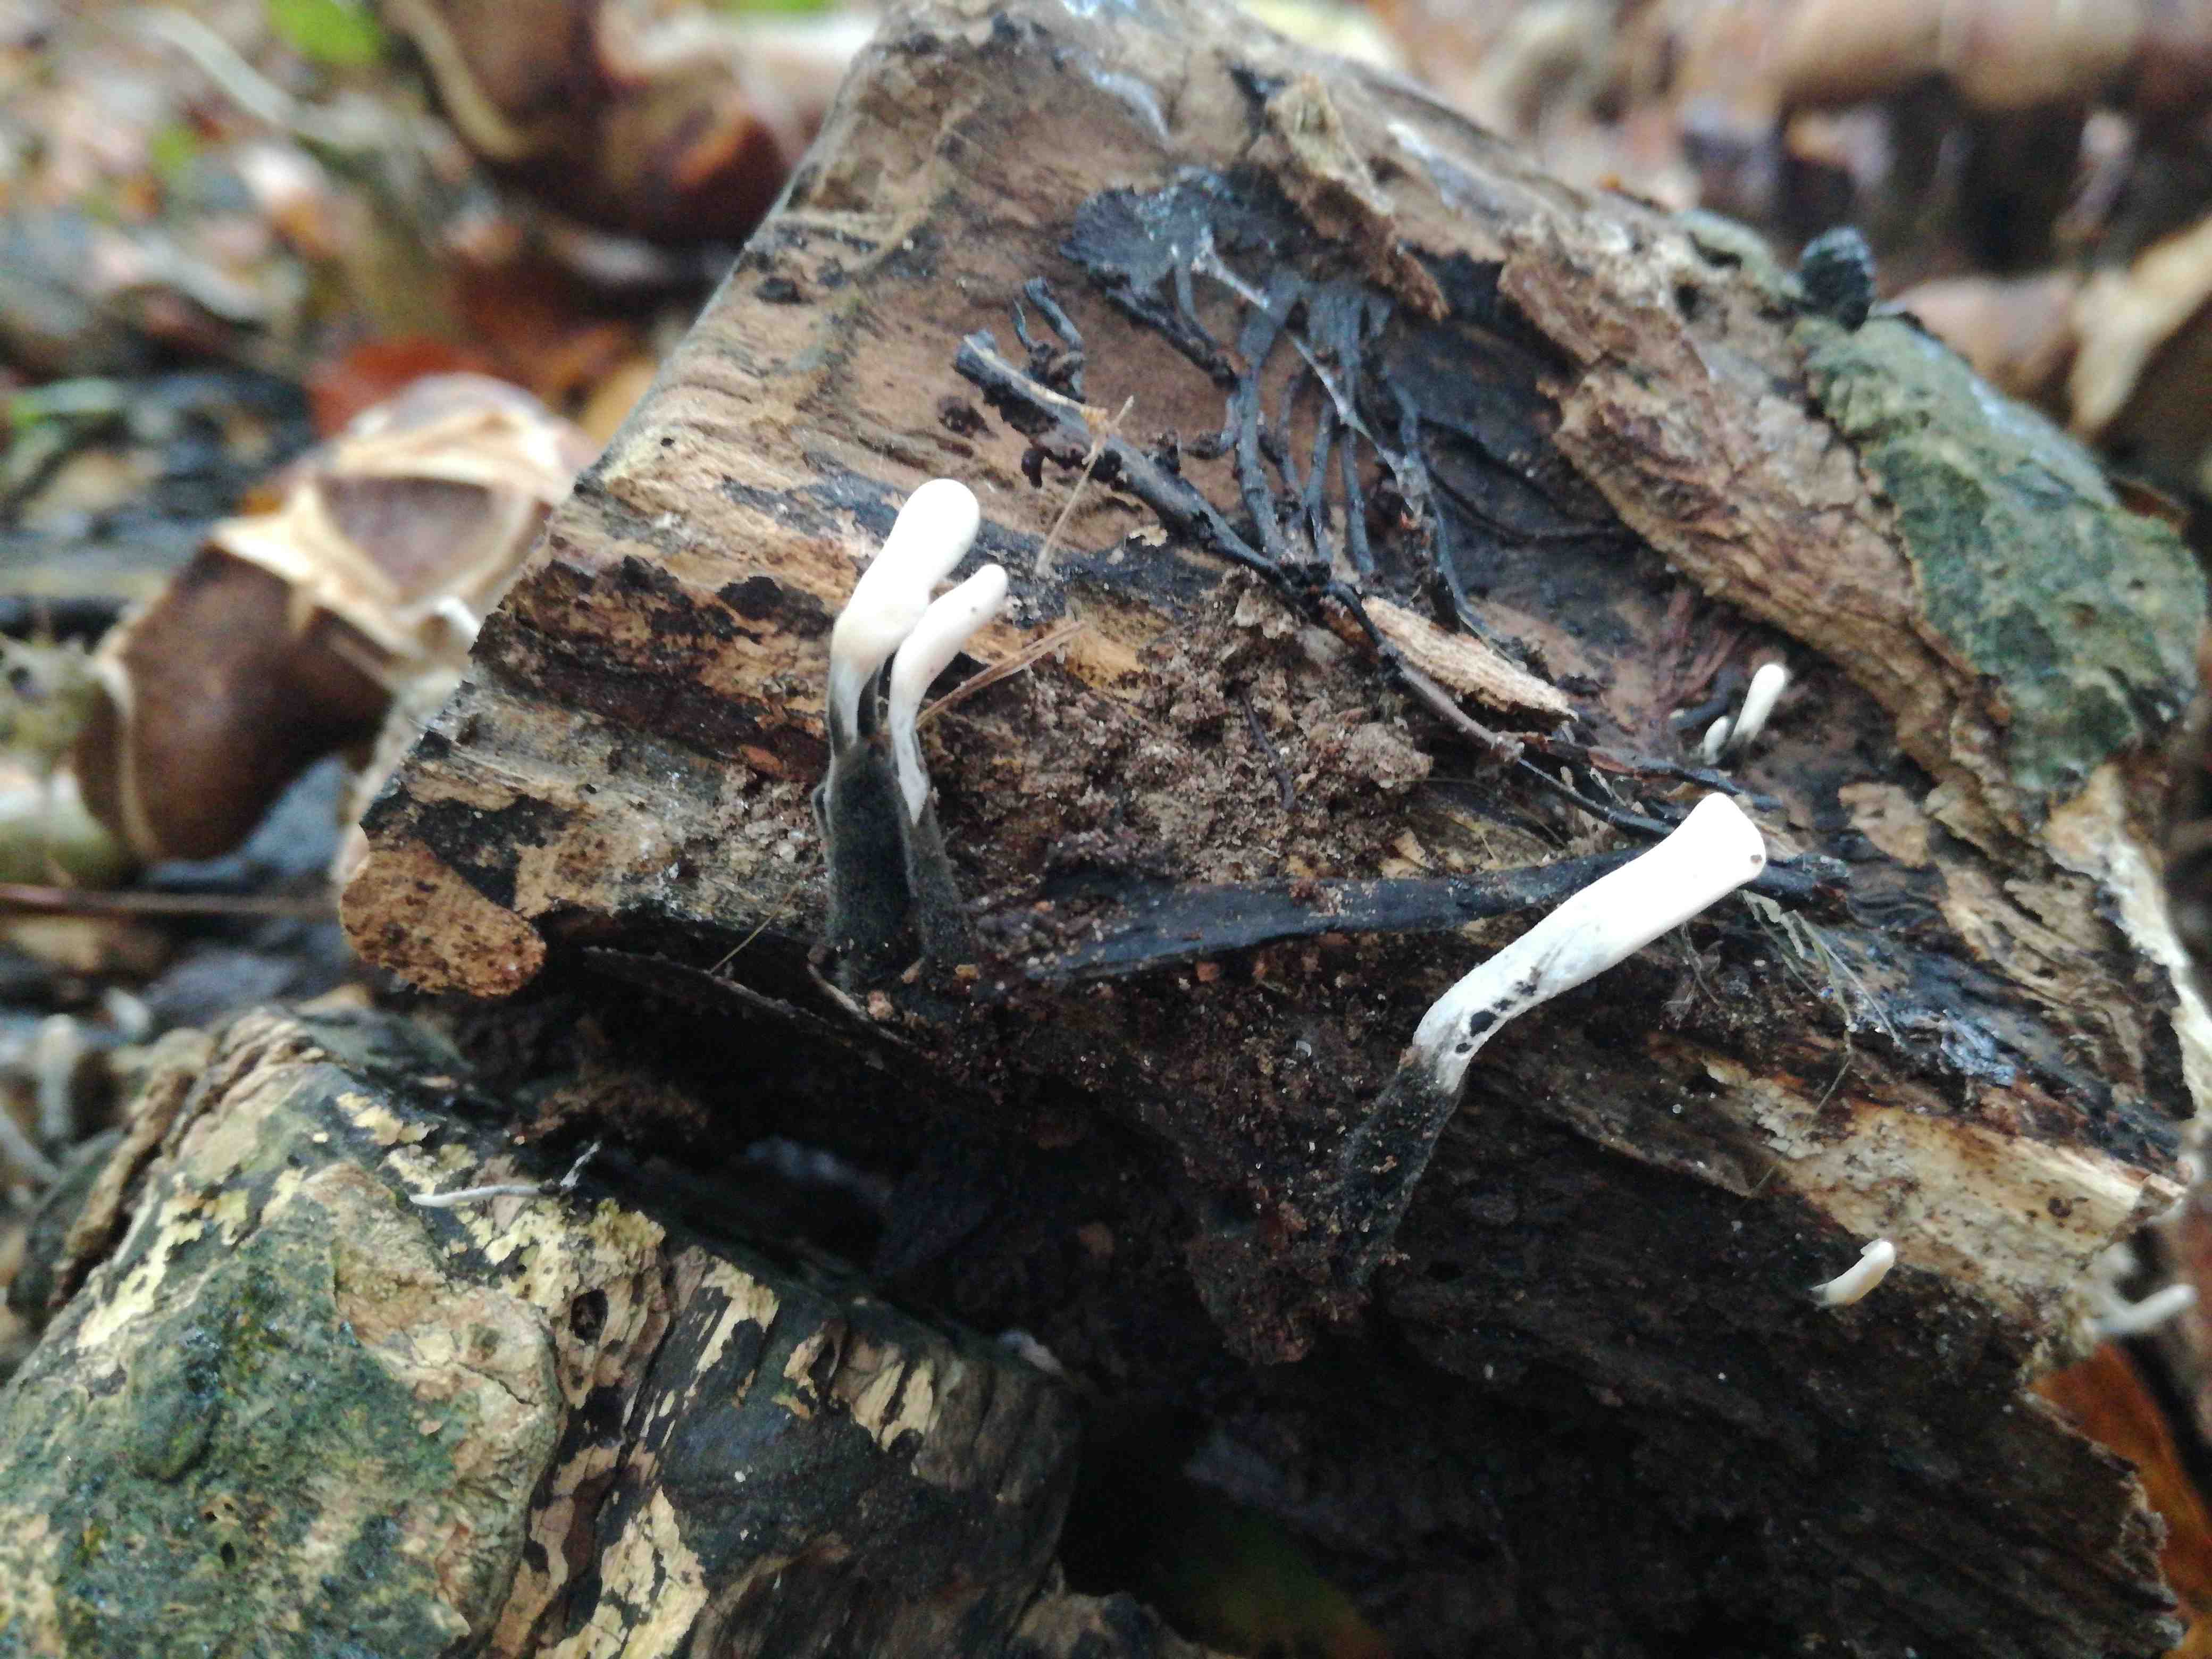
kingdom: Fungi
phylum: Ascomycota
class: Sordariomycetes
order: Xylariales
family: Xylariaceae
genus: Xylaria
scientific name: Xylaria hypoxylon
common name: grenet stødsvamp
